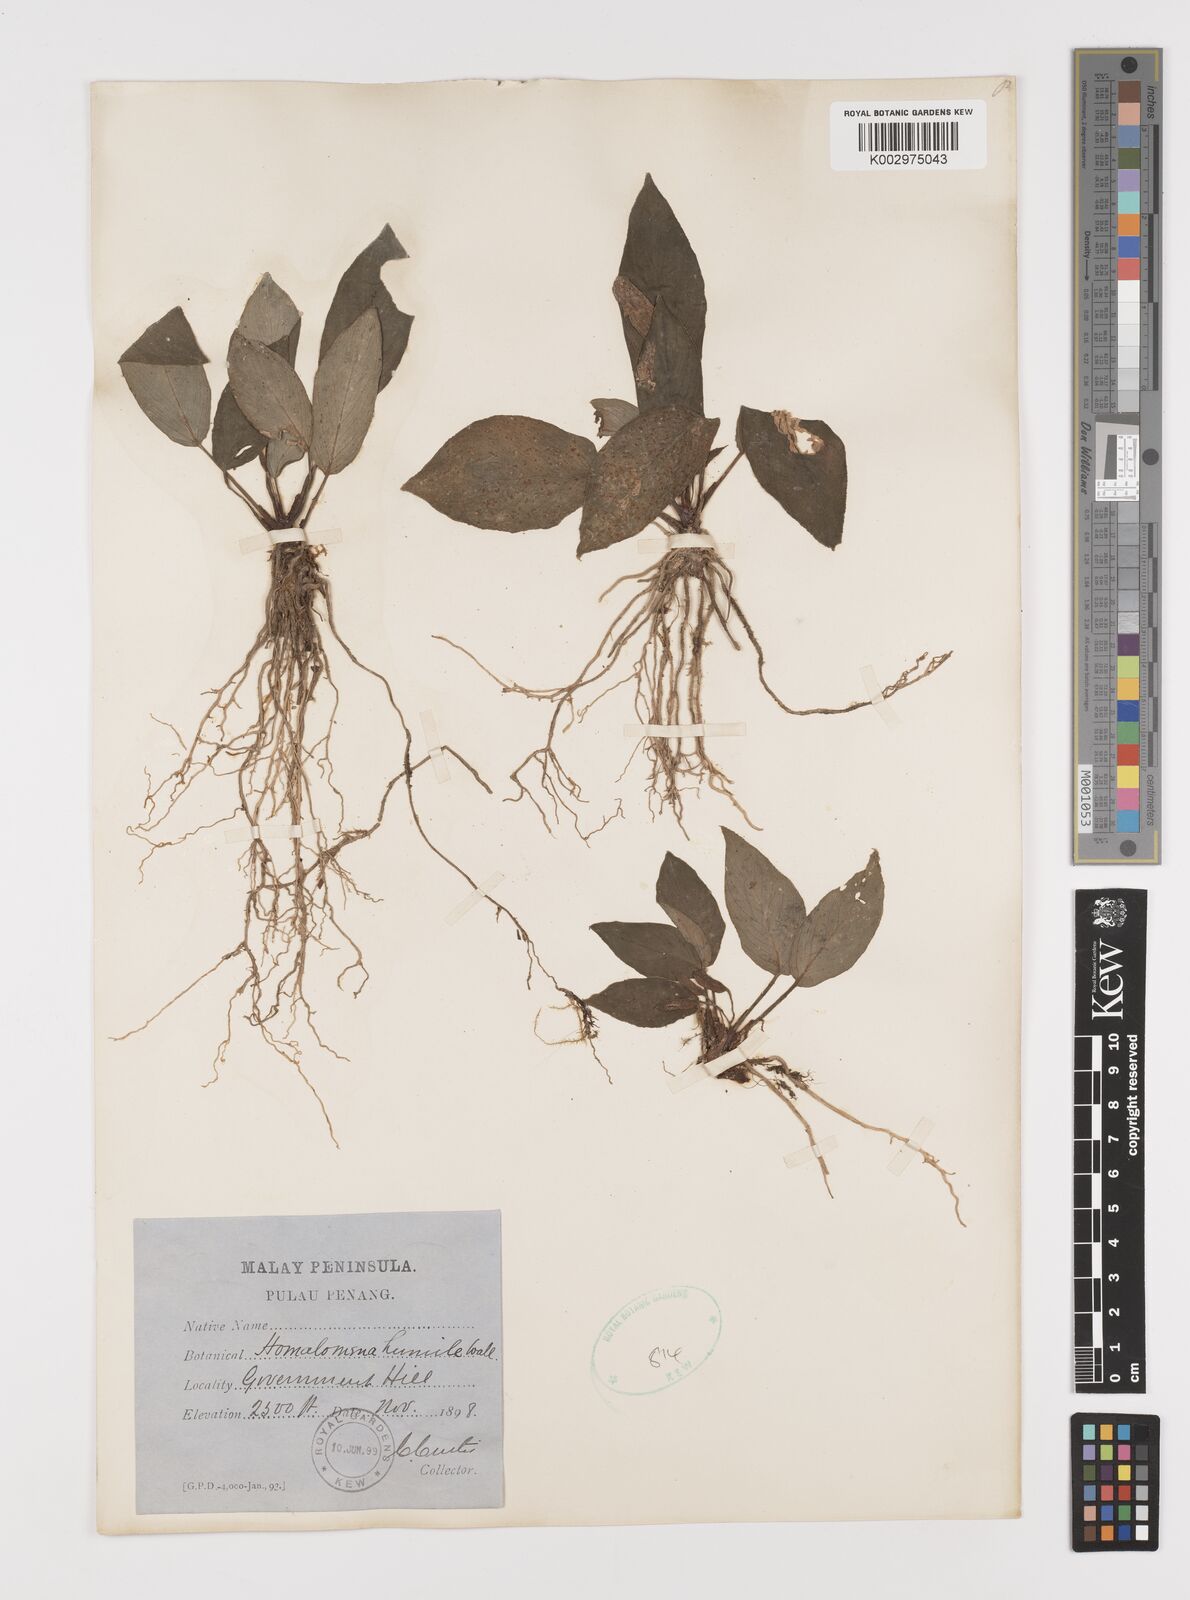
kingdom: Plantae
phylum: Tracheophyta
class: Liliopsida
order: Alismatales
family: Araceae
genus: Homalomena
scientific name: Homalomena humilis
